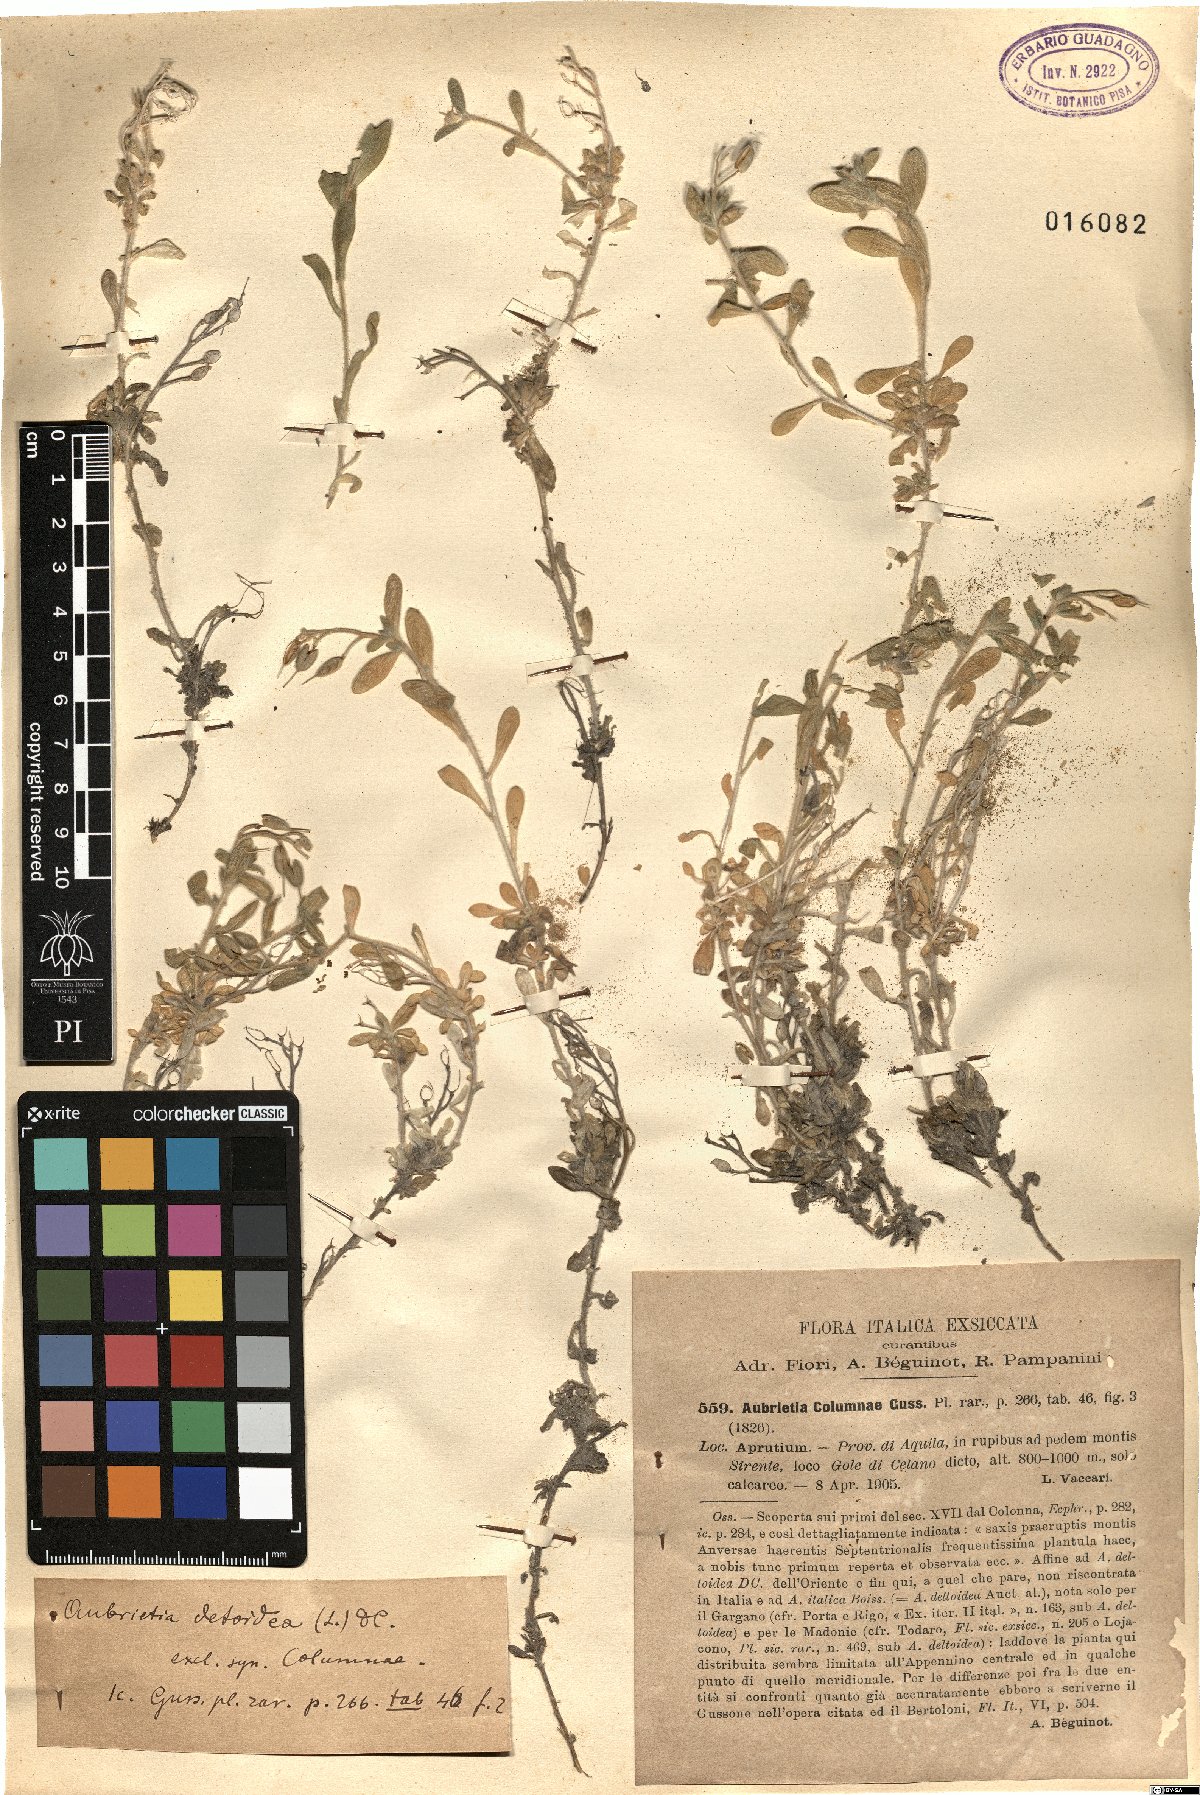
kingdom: Plantae
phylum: Tracheophyta
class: Magnoliopsida
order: Brassicales
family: Brassicaceae
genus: Aubrieta
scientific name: Aubrieta columnae
